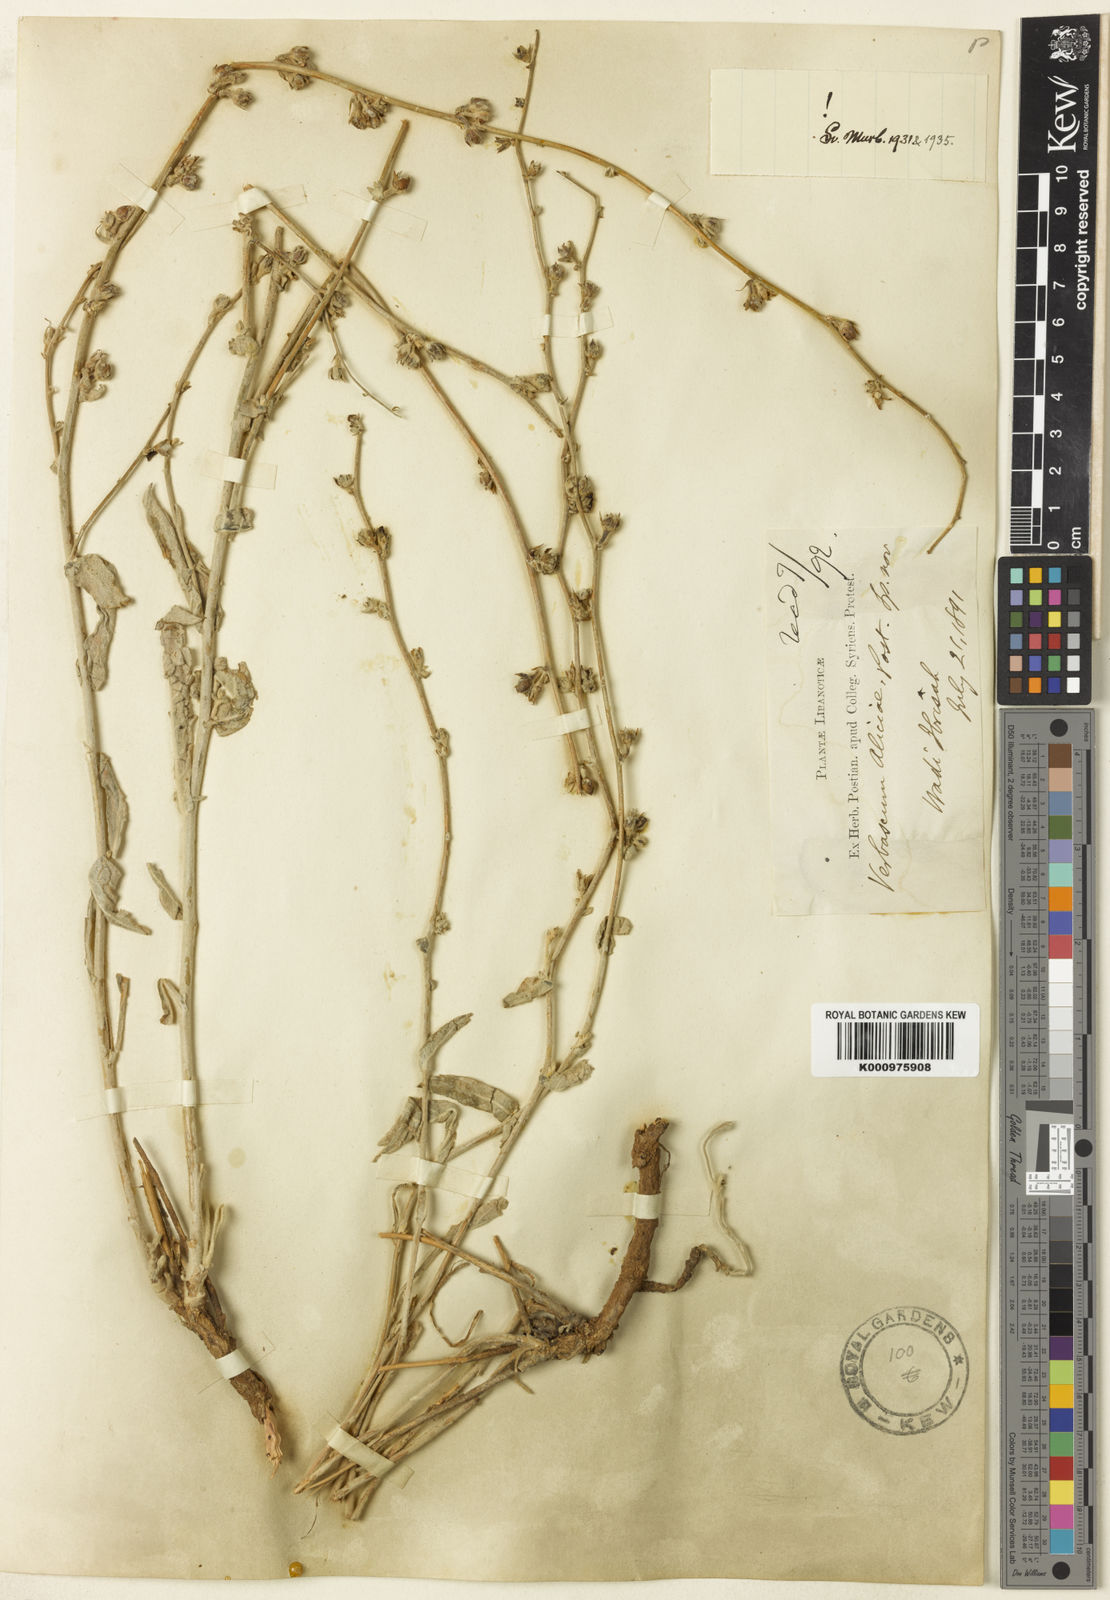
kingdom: Plantae
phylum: Tracheophyta
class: Magnoliopsida
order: Lamiales
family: Scrophulariaceae
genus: Verbascum
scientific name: Verbascum aliciae
